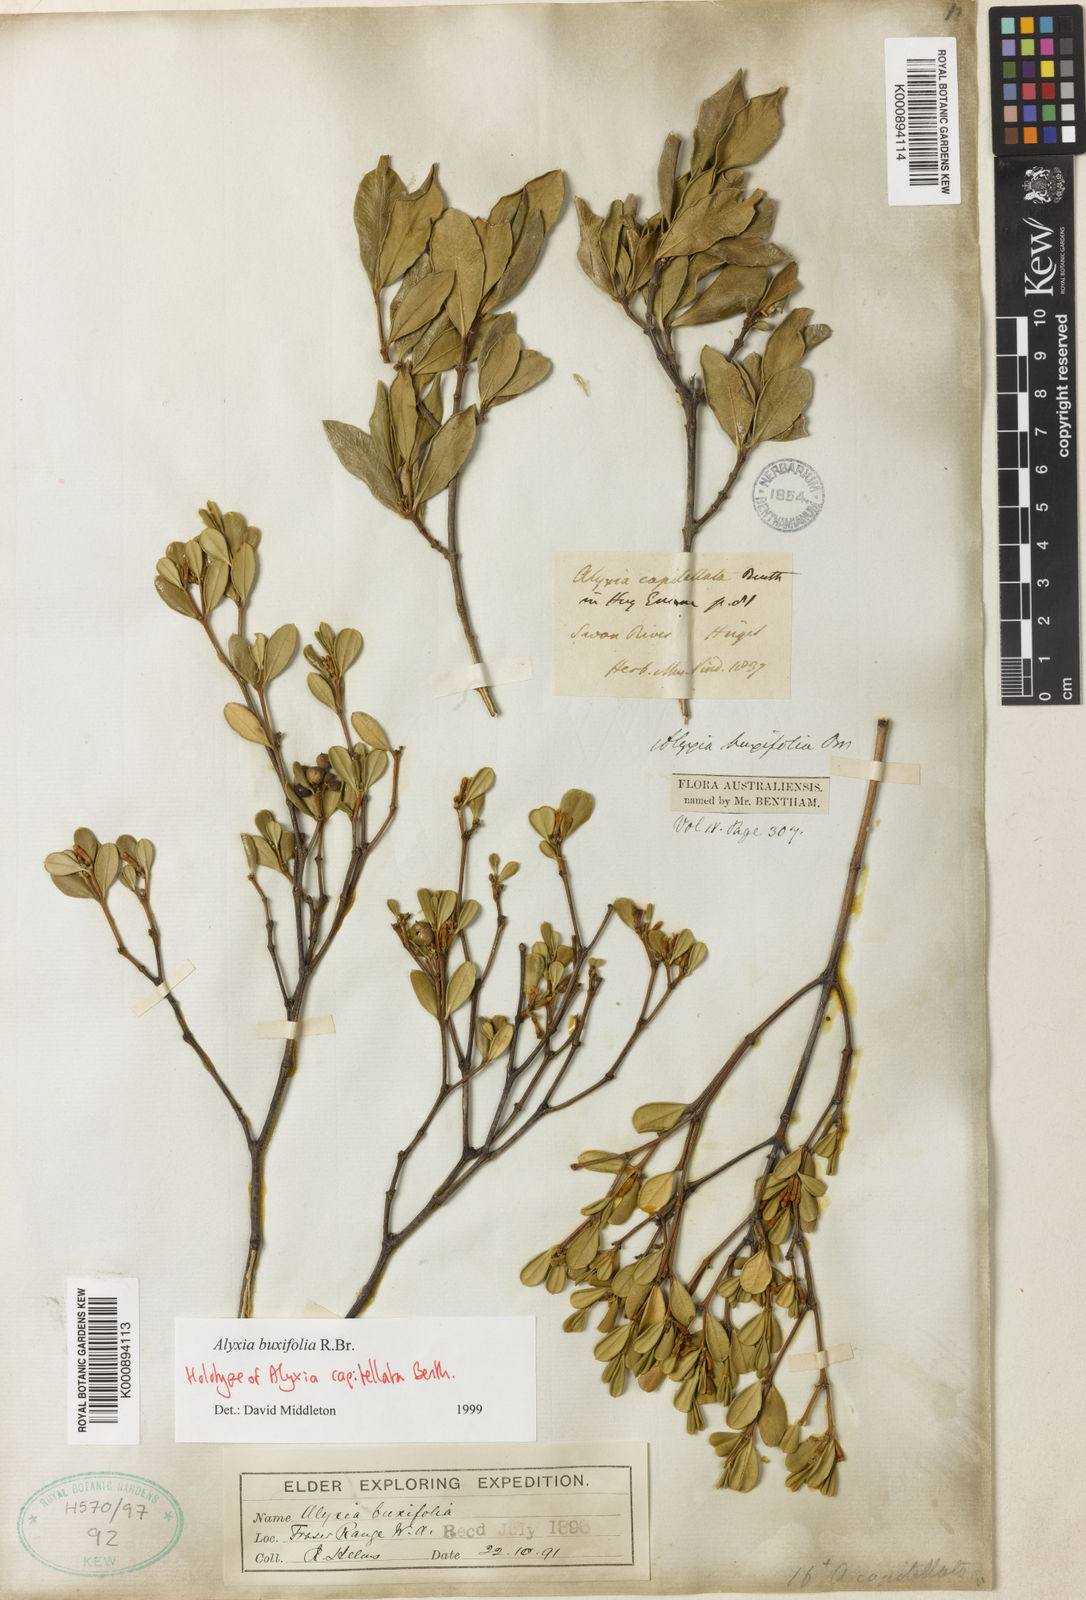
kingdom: Plantae
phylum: Tracheophyta
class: Magnoliopsida
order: Gentianales
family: Apocynaceae
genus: Alyxia
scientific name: Alyxia buxifolia
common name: Dysentery-bush
